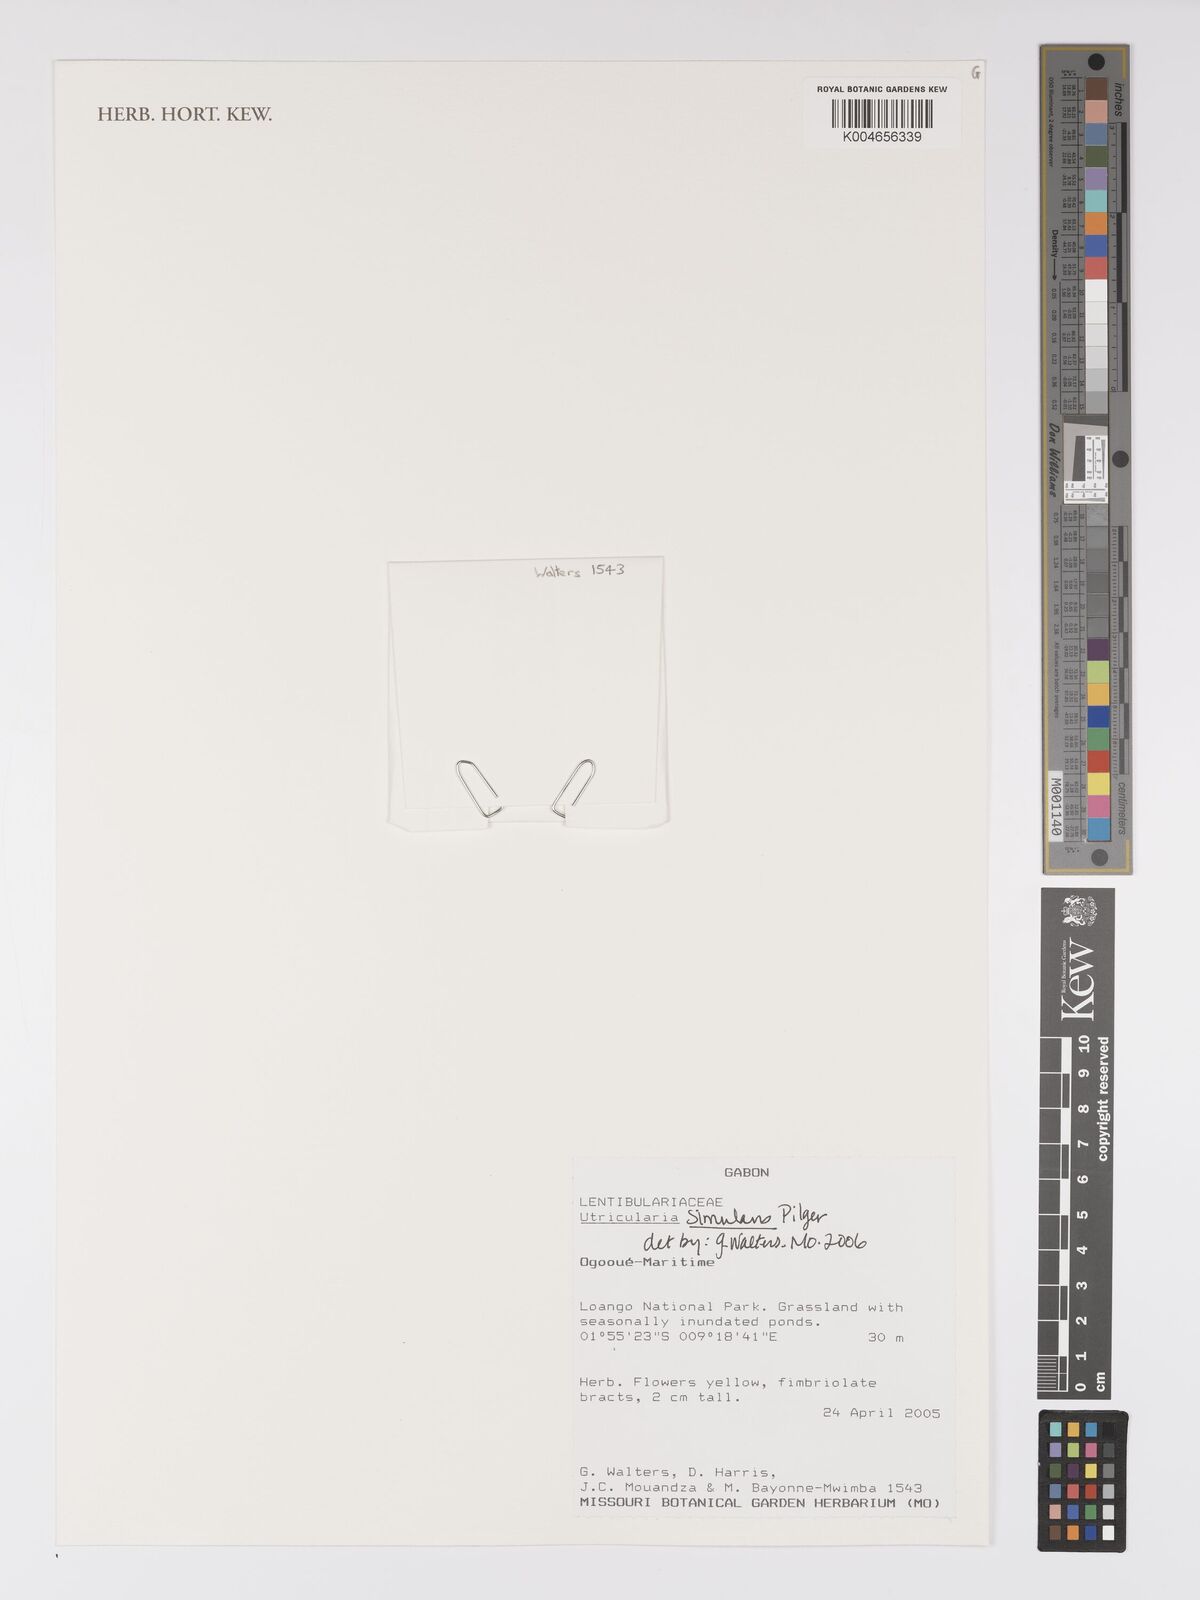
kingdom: Plantae
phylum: Tracheophyta
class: Magnoliopsida
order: Lamiales
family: Lentibulariaceae
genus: Utricularia
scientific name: Utricularia simulans
